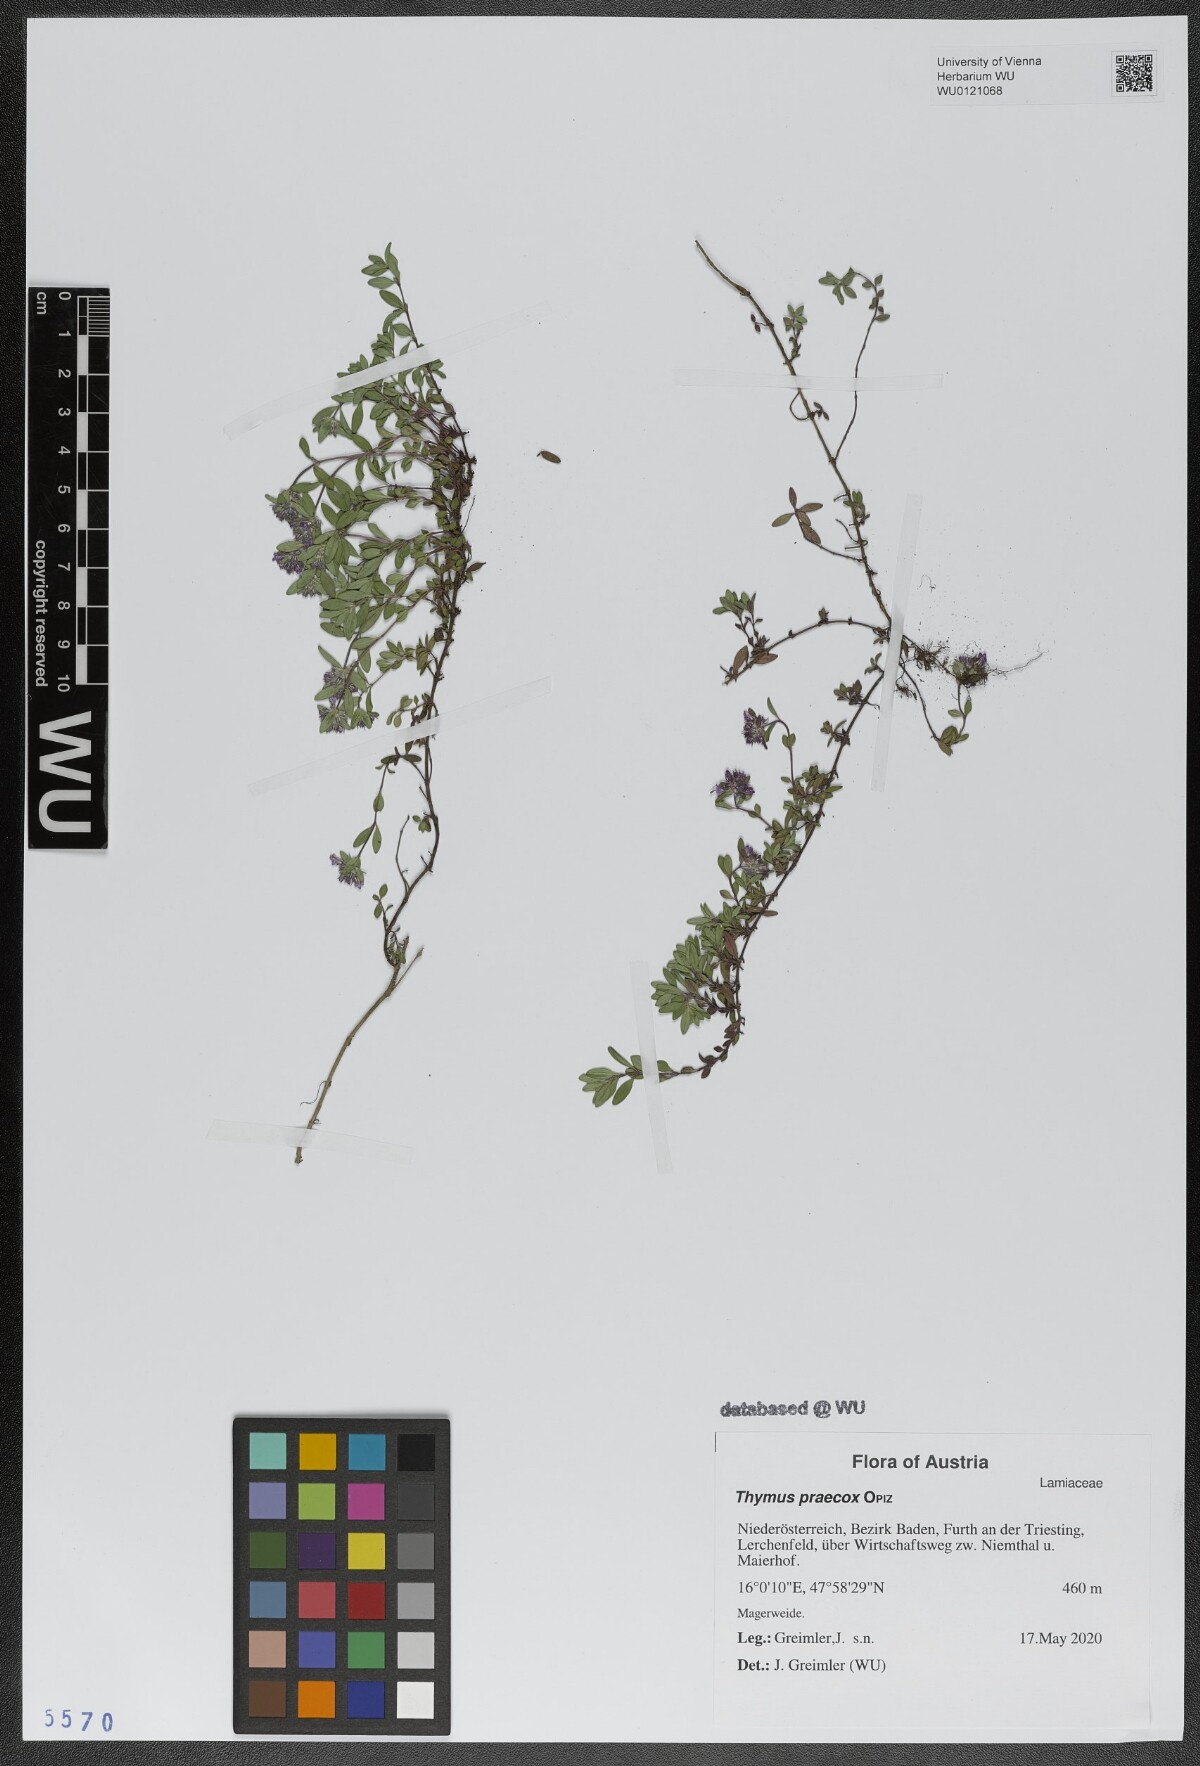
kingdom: Plantae
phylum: Tracheophyta
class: Magnoliopsida
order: Lamiales
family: Lamiaceae
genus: Thymus
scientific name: Thymus praecox
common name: Wild thyme
